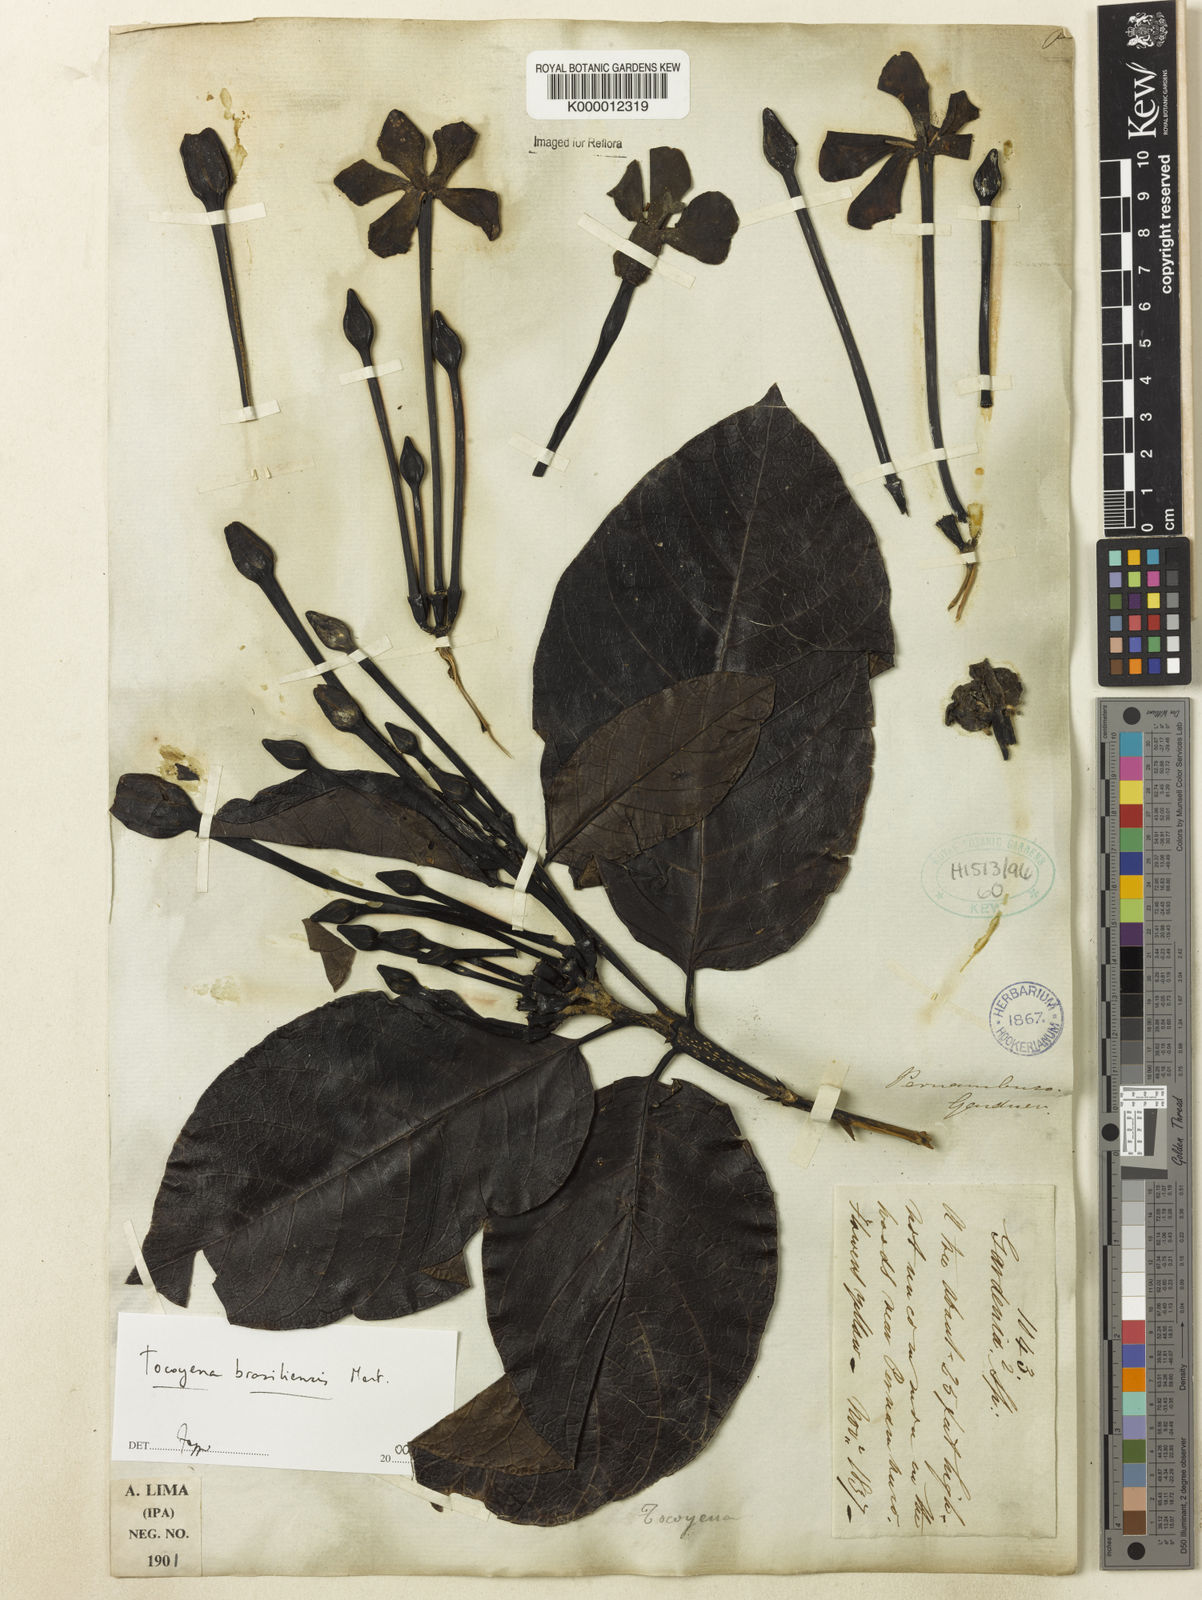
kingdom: Plantae
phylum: Tracheophyta
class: Magnoliopsida
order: Gentianales
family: Rubiaceae
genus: Tocoyena
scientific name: Tocoyena sprucei
